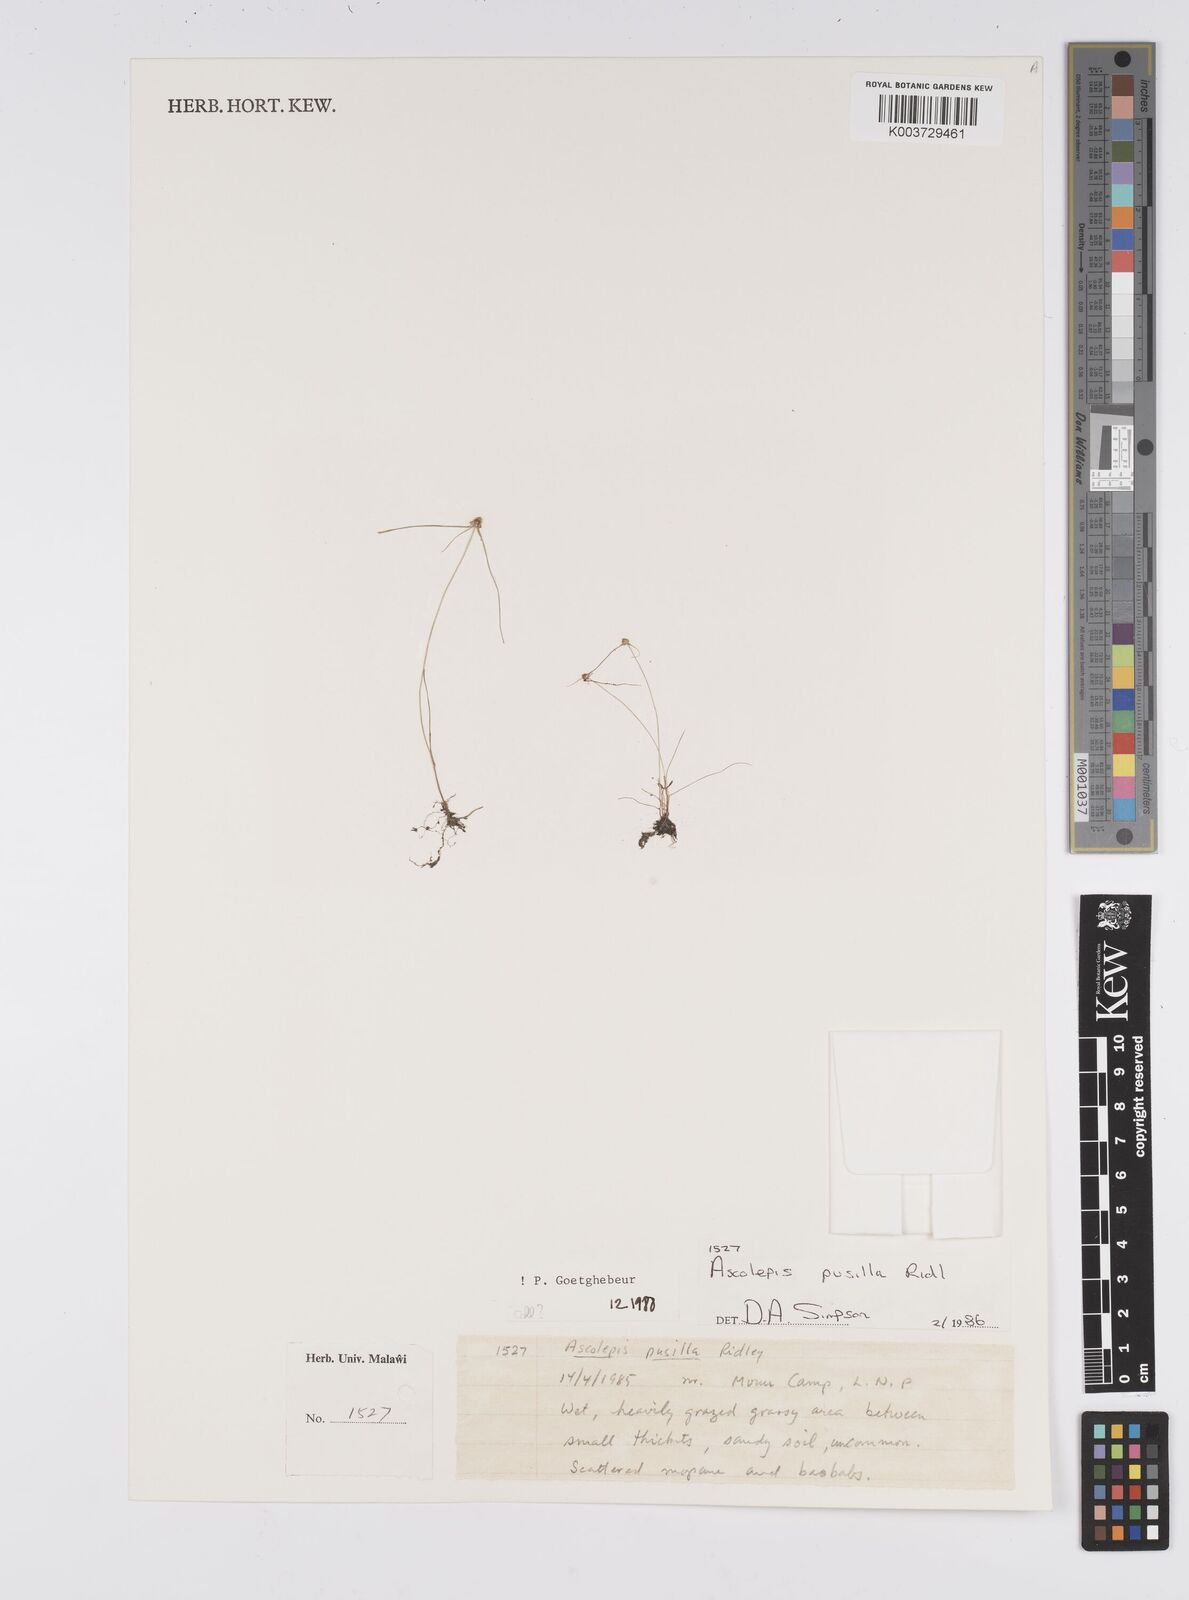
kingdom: Plantae
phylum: Tracheophyta
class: Liliopsida
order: Poales
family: Cyperaceae
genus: Cyperus
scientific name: Cyperus
